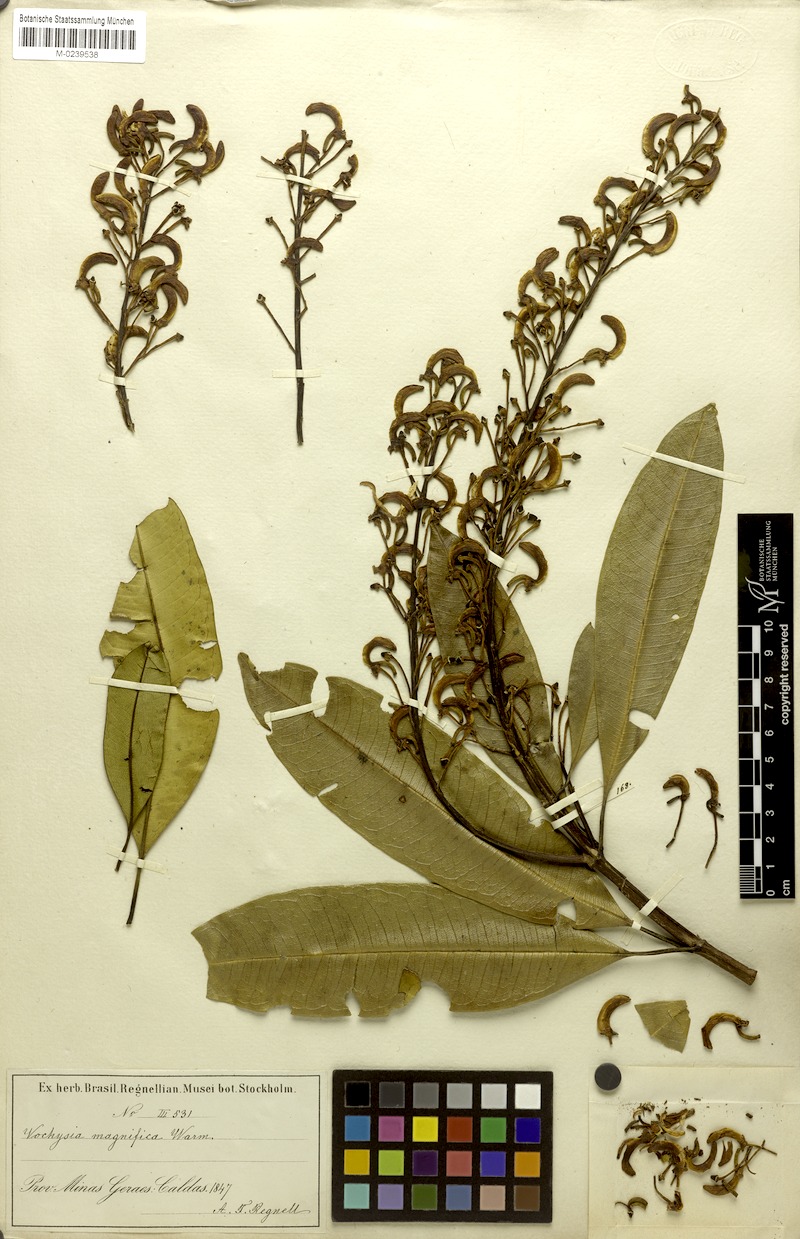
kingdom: Plantae
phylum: Tracheophyta
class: Magnoliopsida
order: Myrtales
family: Vochysiaceae
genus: Vochysia
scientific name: Vochysia magnifica
